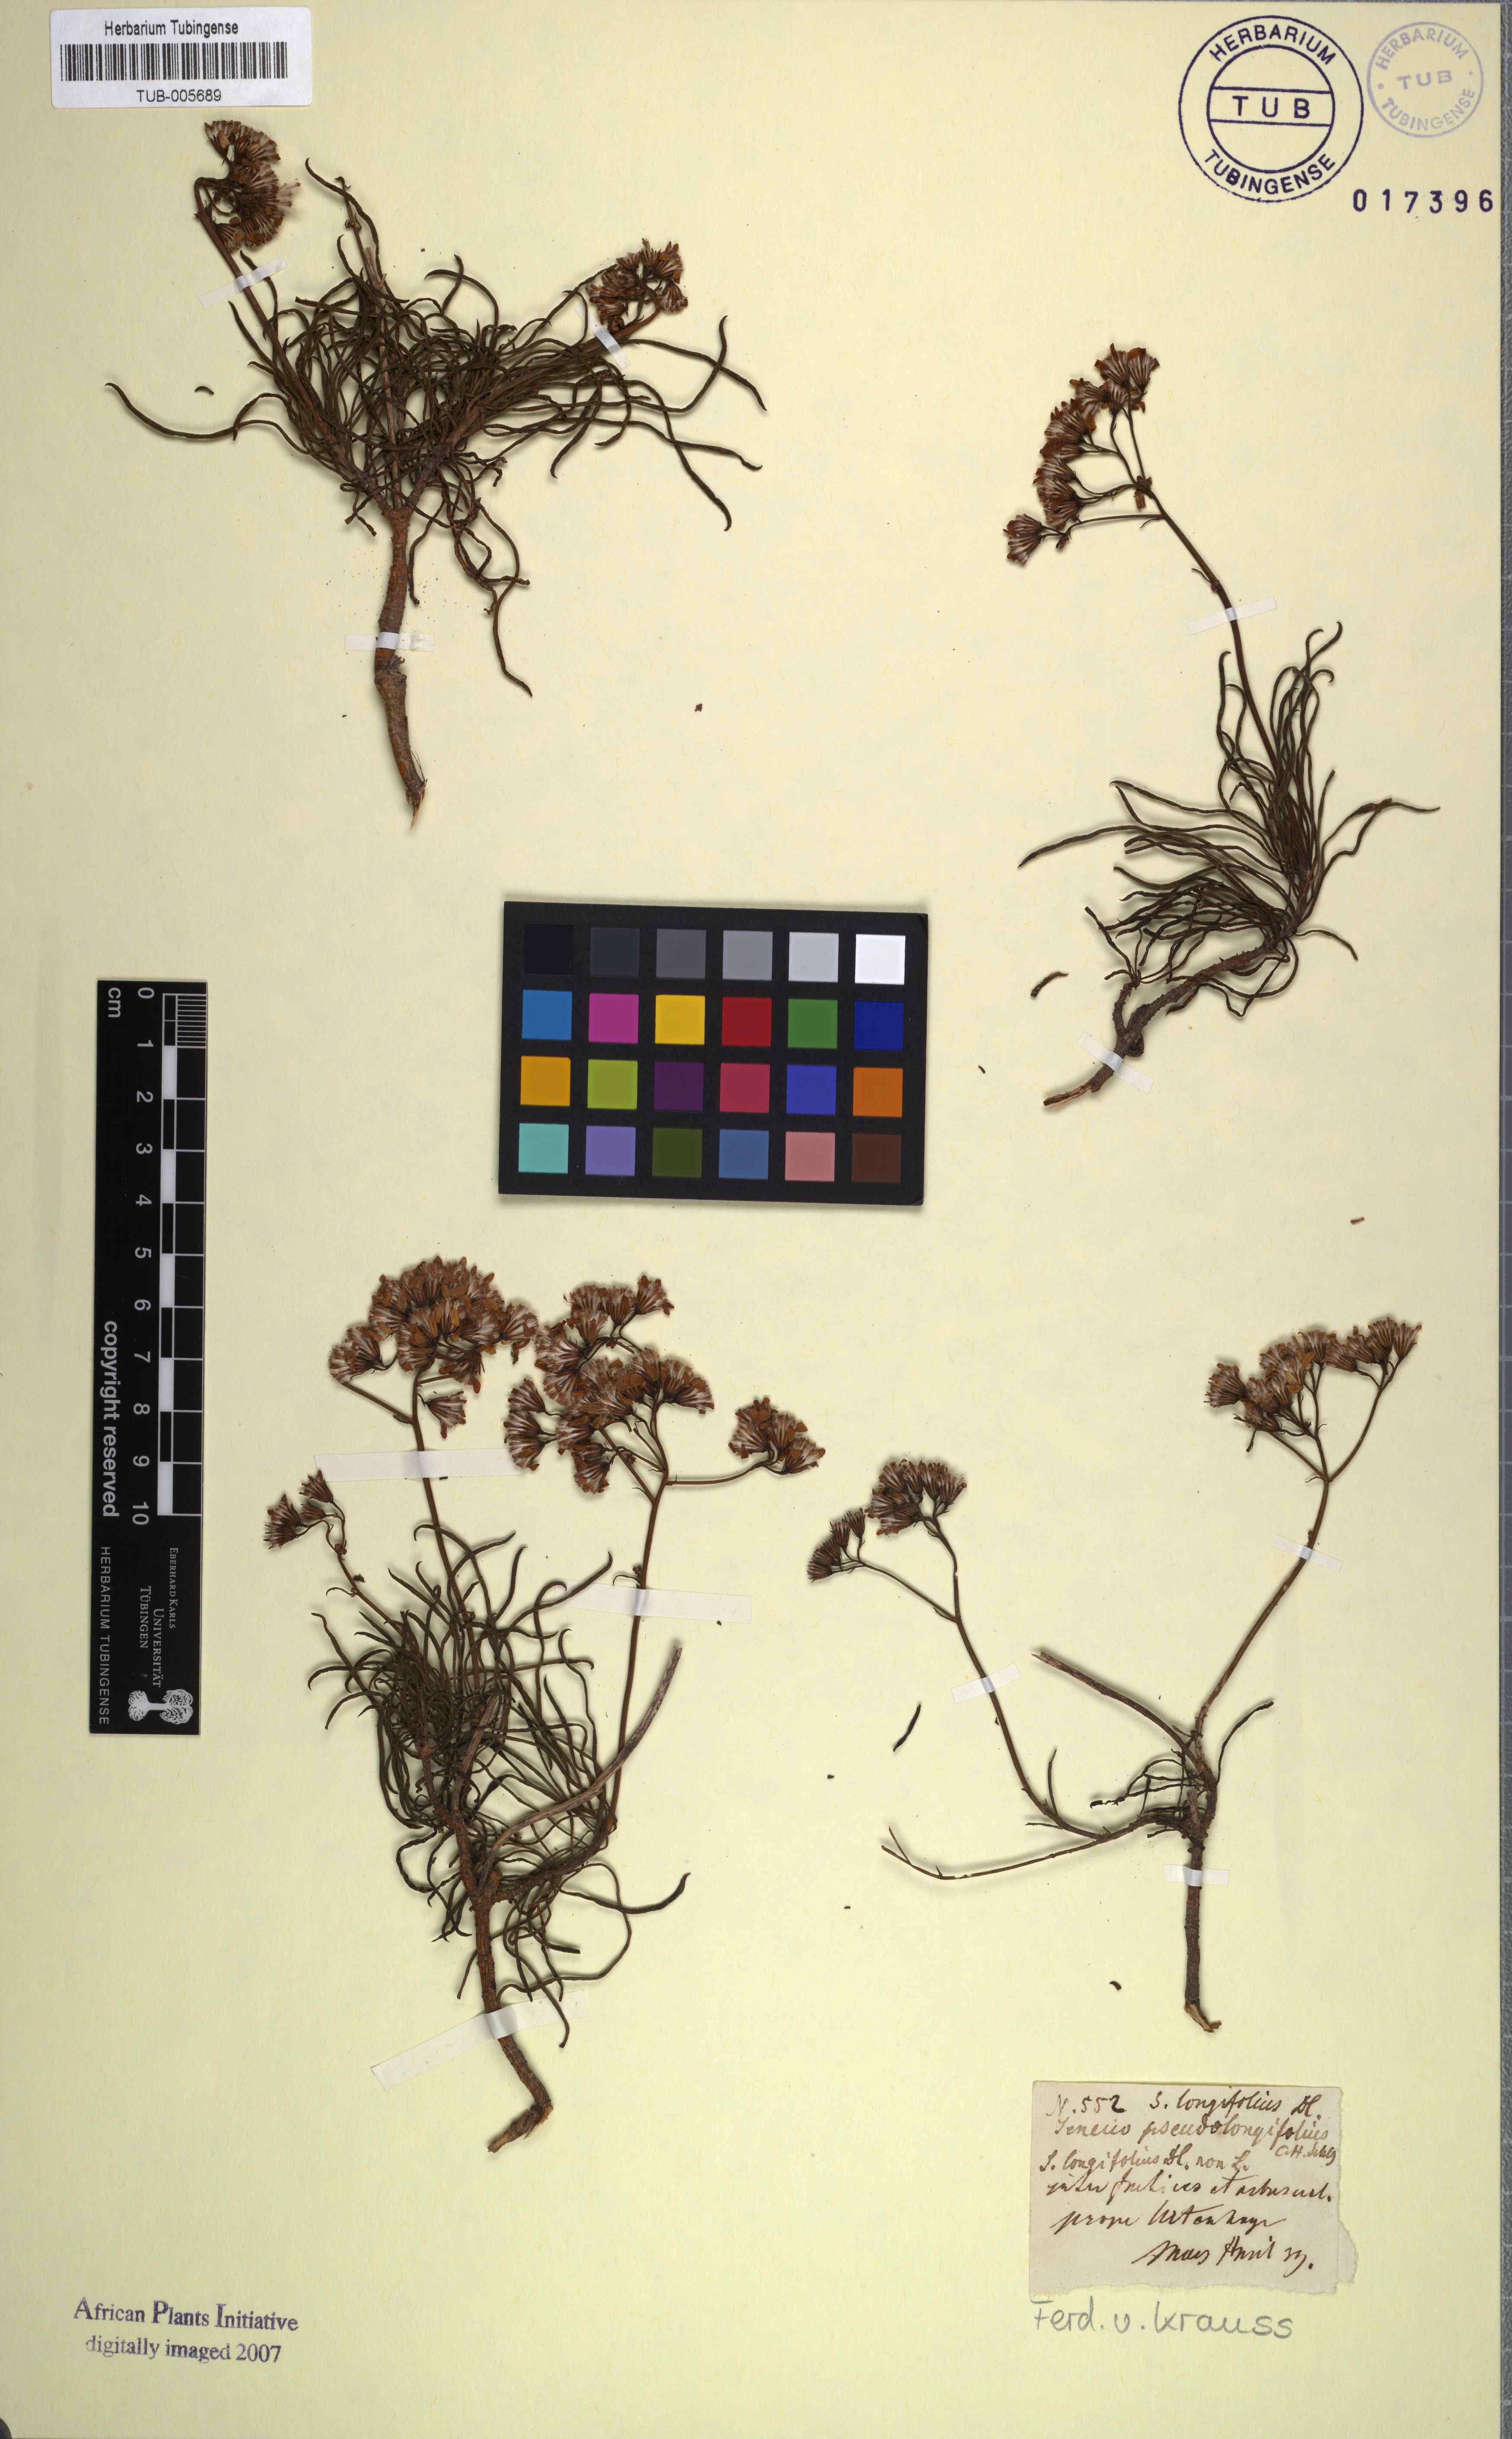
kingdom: Plantae
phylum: Tracheophyta
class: Magnoliopsida
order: Asterales
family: Asteraceae
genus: Senecio
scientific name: Senecio linifolius
